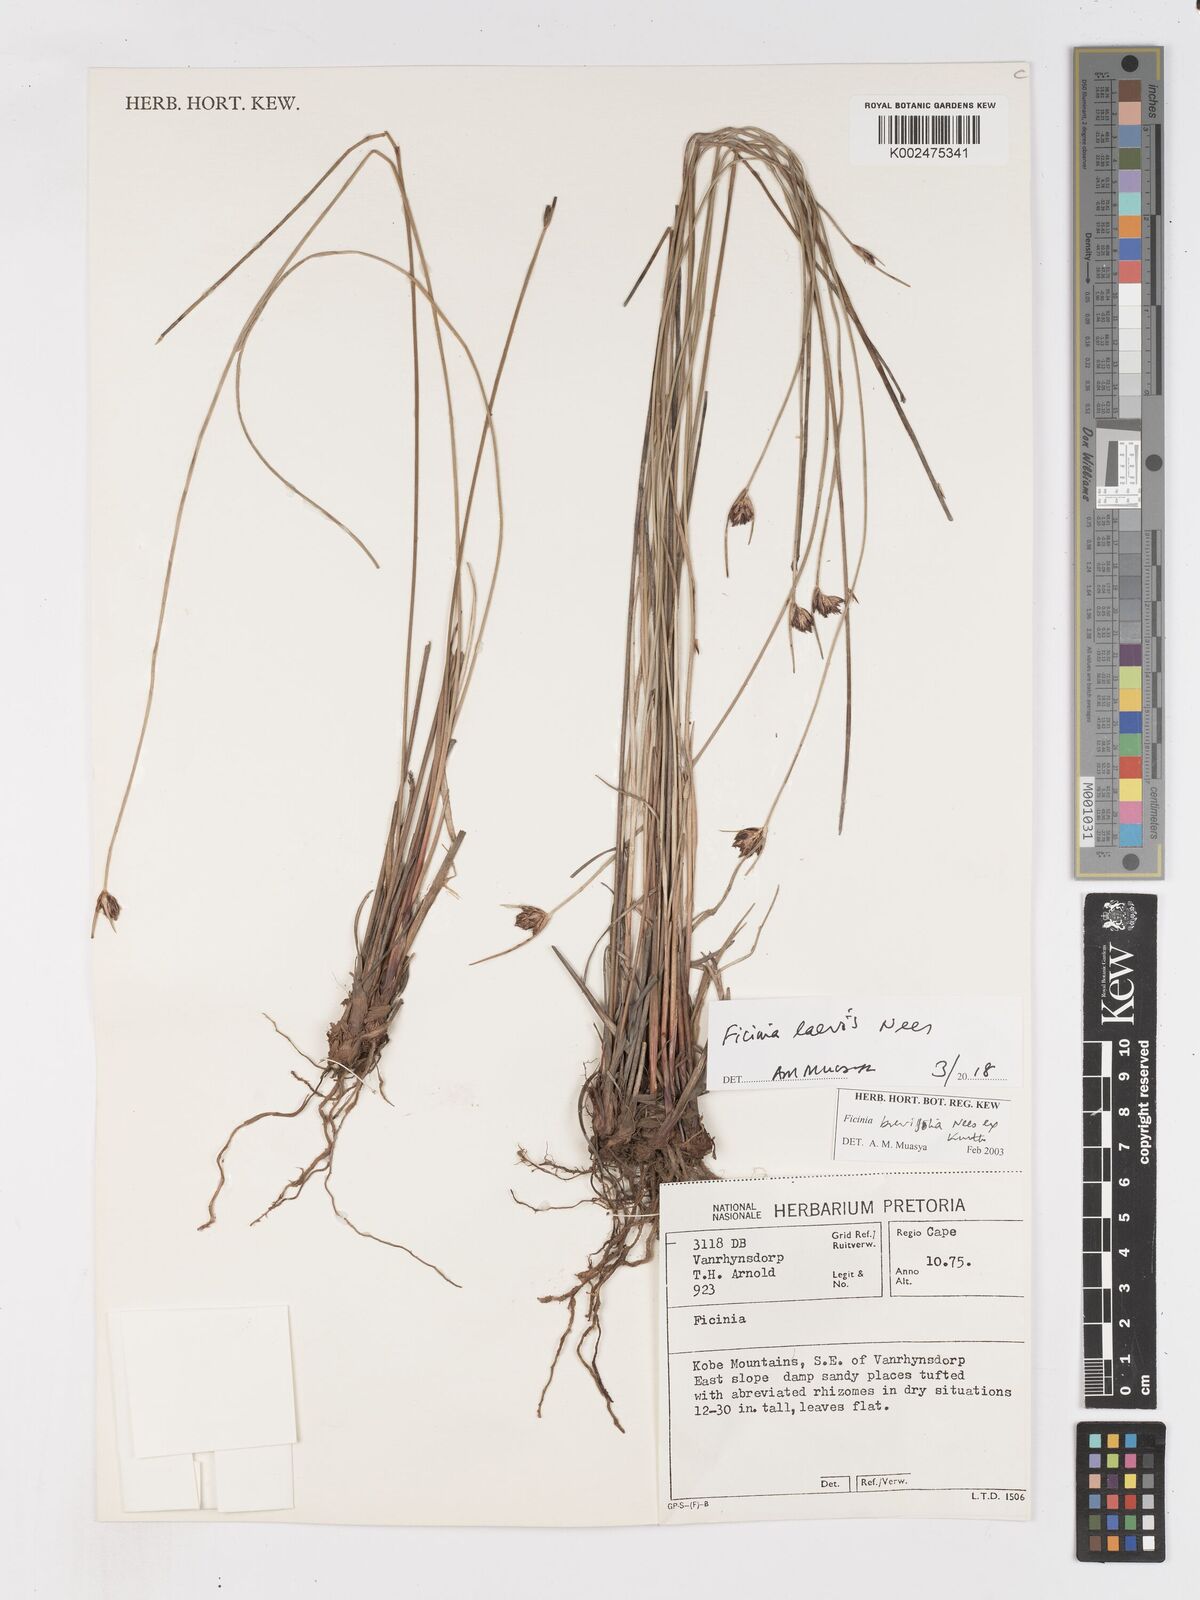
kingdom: Plantae
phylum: Tracheophyta
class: Liliopsida
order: Poales
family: Cyperaceae
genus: Ficinia
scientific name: Ficinia laevis
